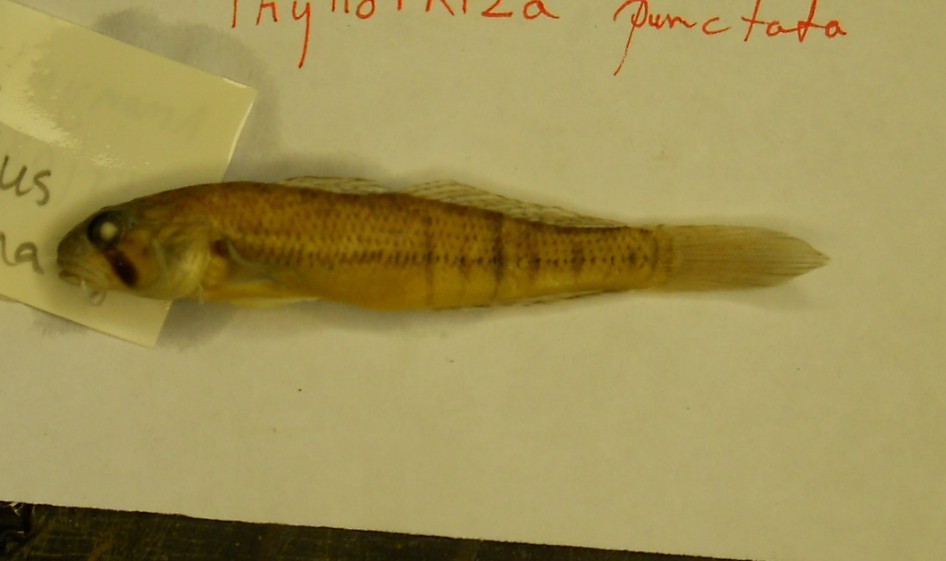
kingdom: Animalia
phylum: Chordata
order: Perciformes
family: Gobiidae
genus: Stenogobius
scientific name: Stenogobius polyzona
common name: Chinestripe goby
